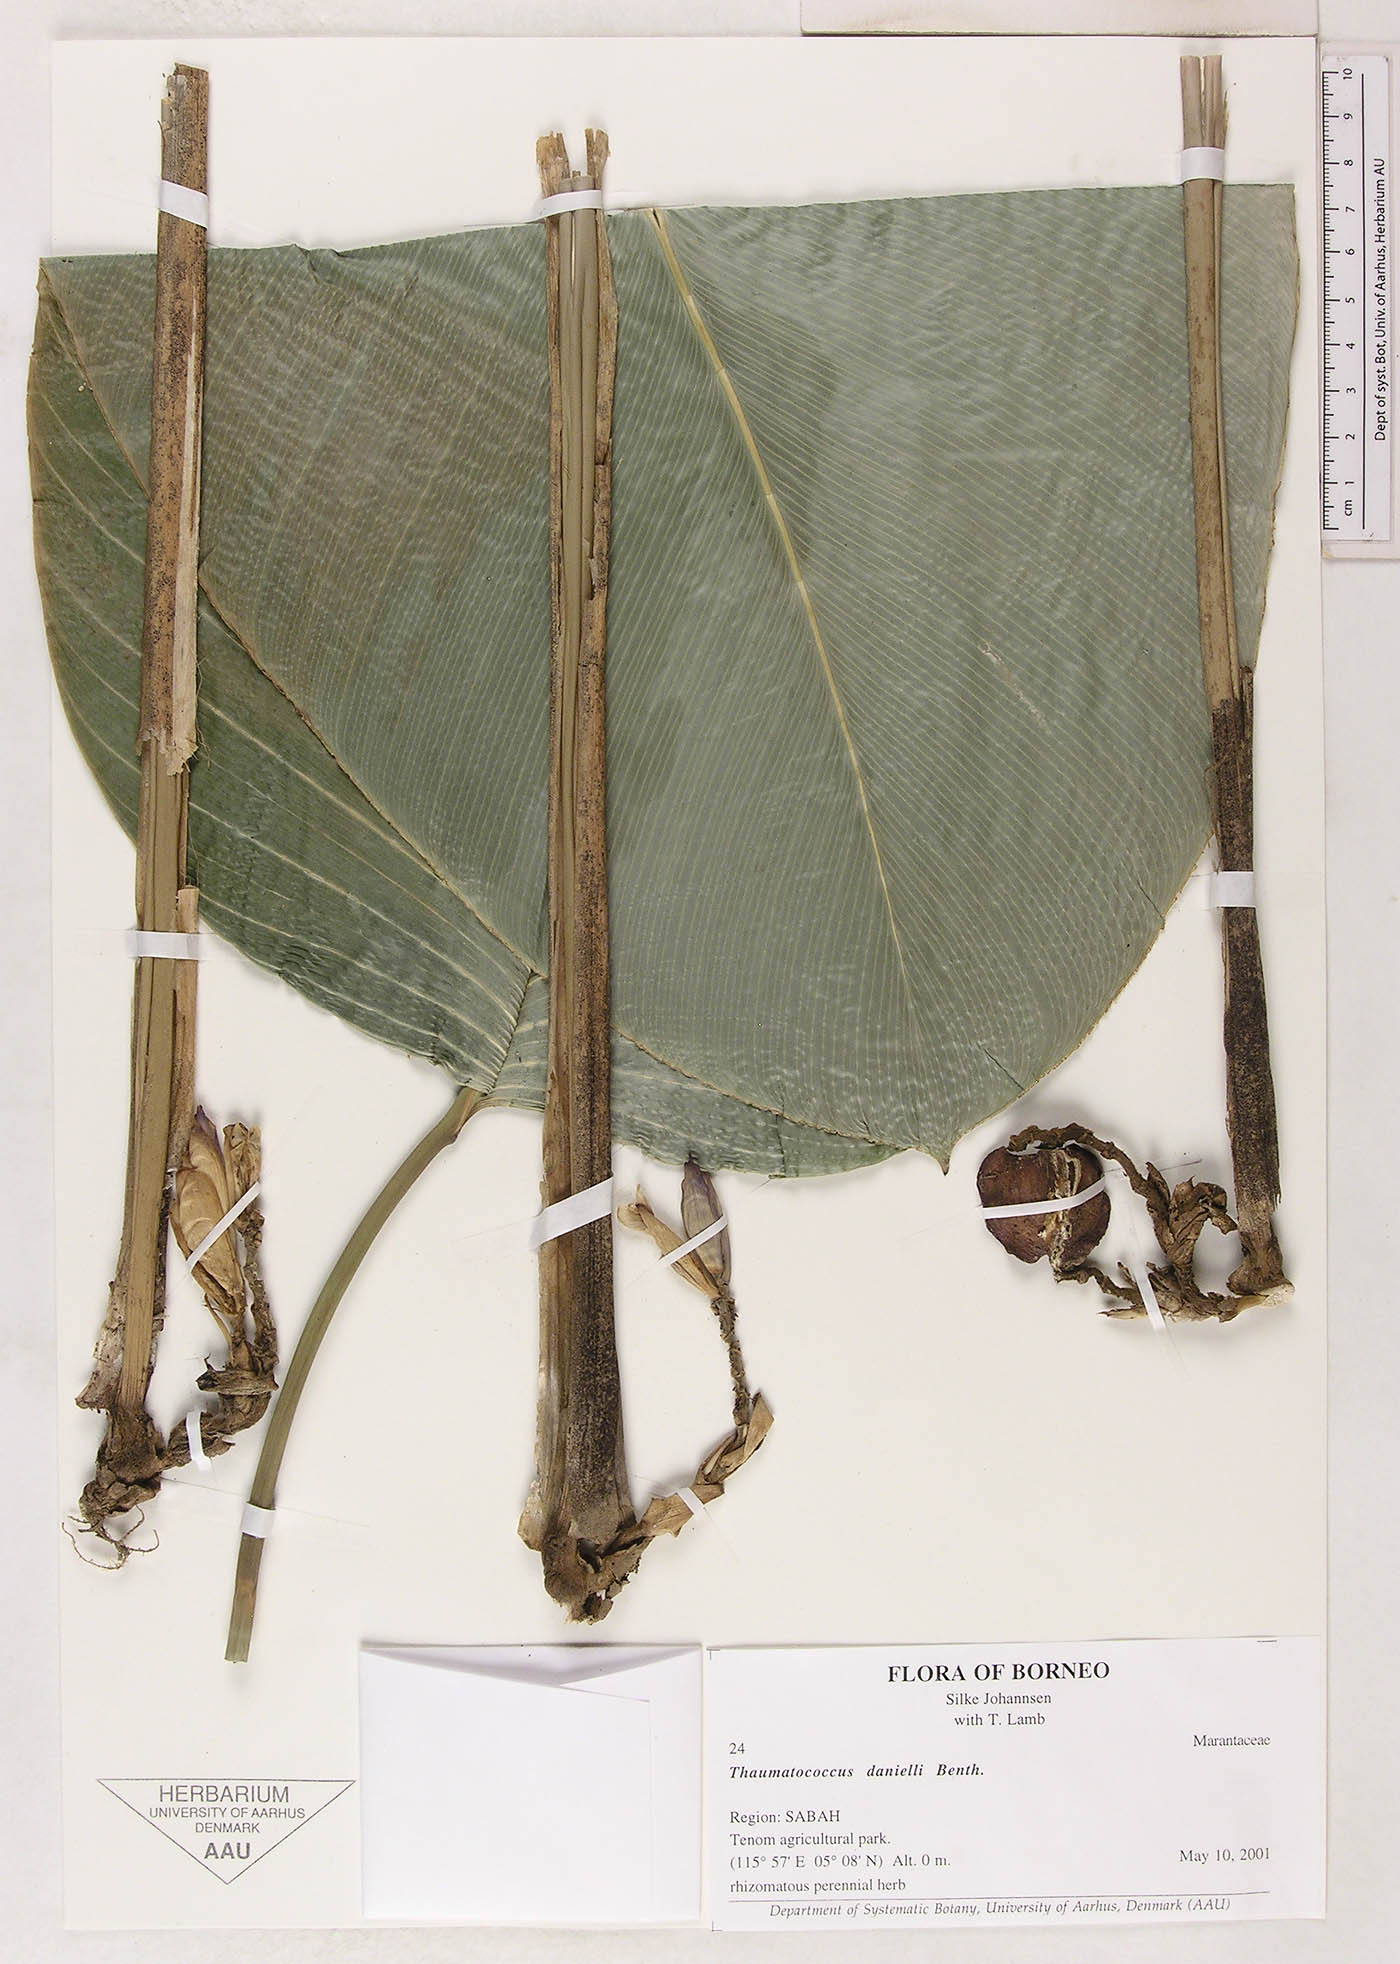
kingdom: Plantae
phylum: Tracheophyta
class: Liliopsida
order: Zingiberales
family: Marantaceae
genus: Thaumatococcus
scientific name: Thaumatococcus daniellii
